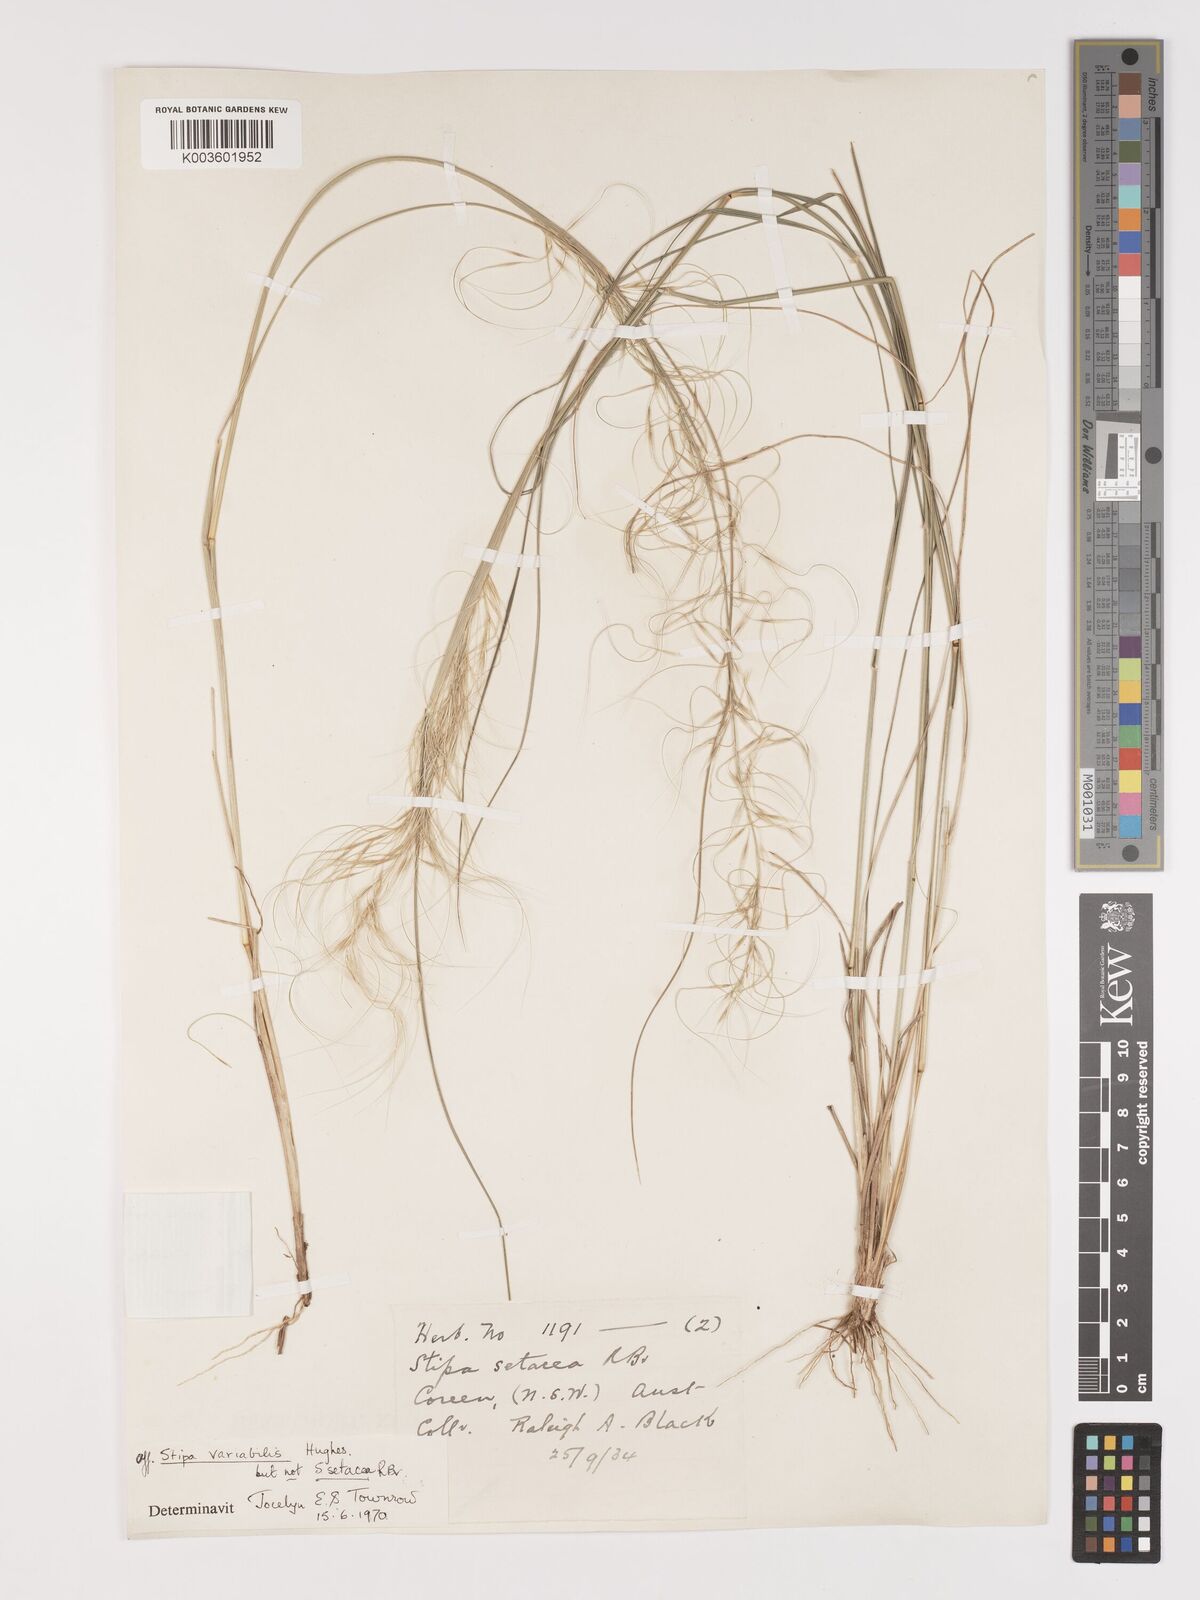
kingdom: Plantae
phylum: Tracheophyta
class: Liliopsida
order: Poales
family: Poaceae
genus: Austrostipa
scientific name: Austrostipa nodosa
